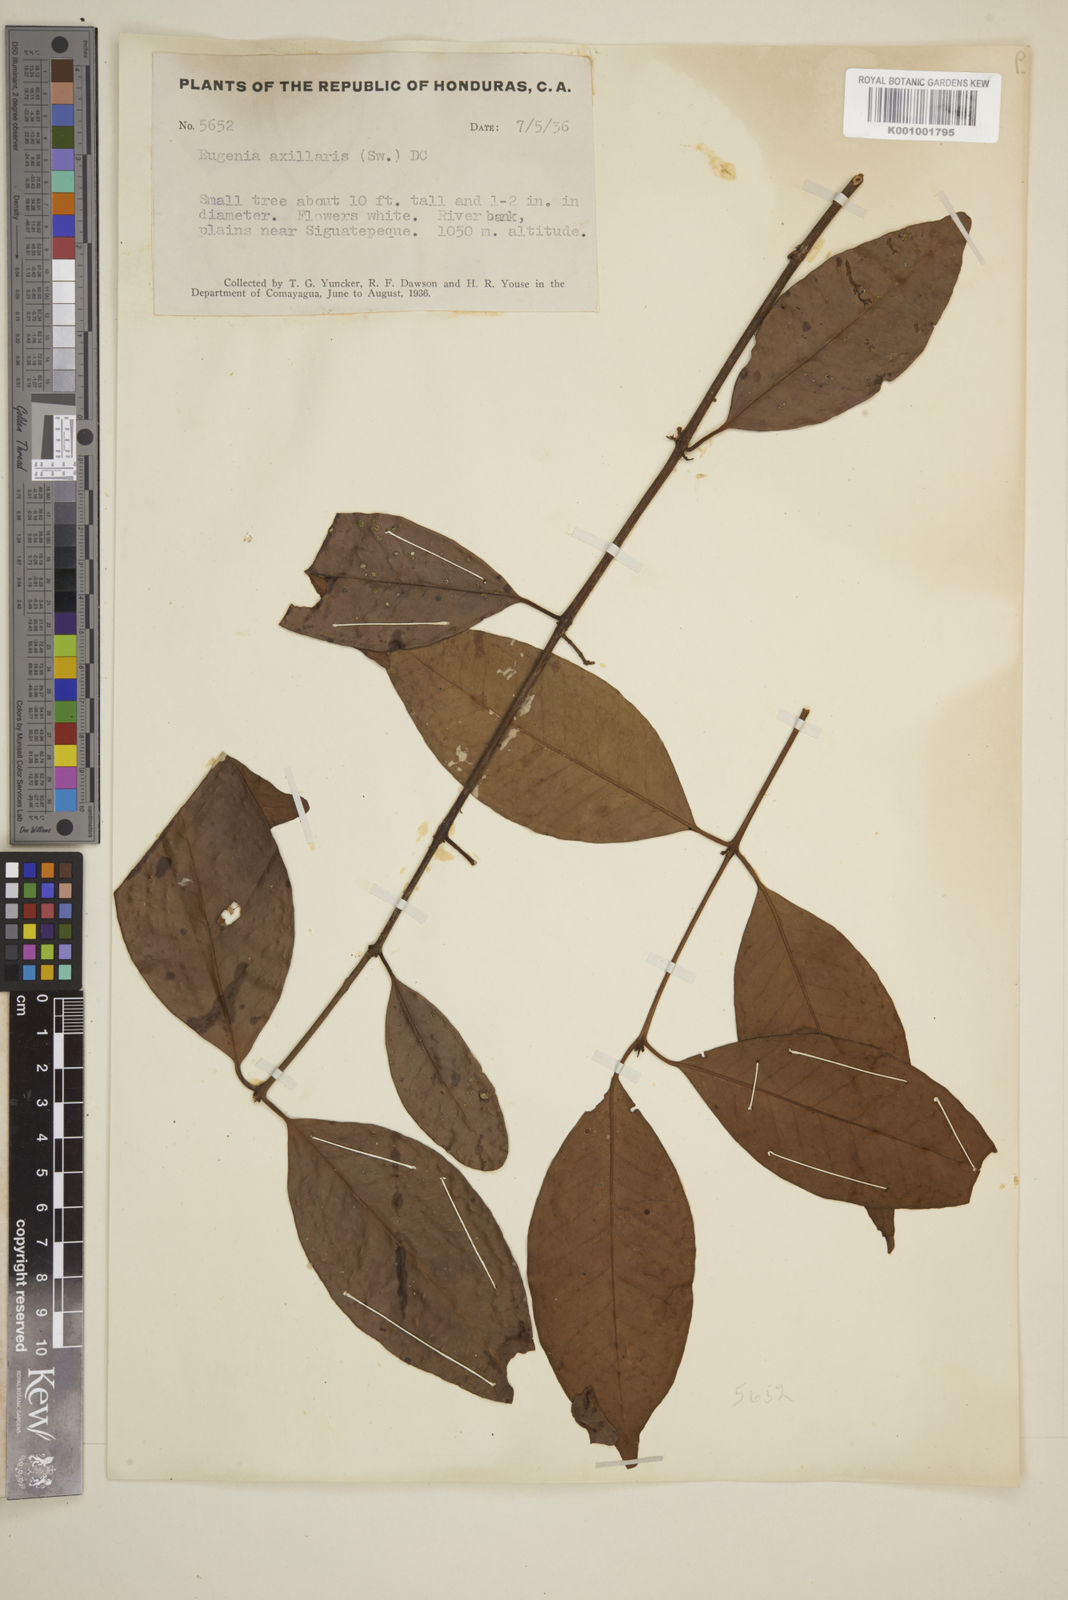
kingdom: Plantae
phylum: Tracheophyta
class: Magnoliopsida
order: Myrtales
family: Myrtaceae
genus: Eugenia
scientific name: Eugenia axillaris
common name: Choaky berry
